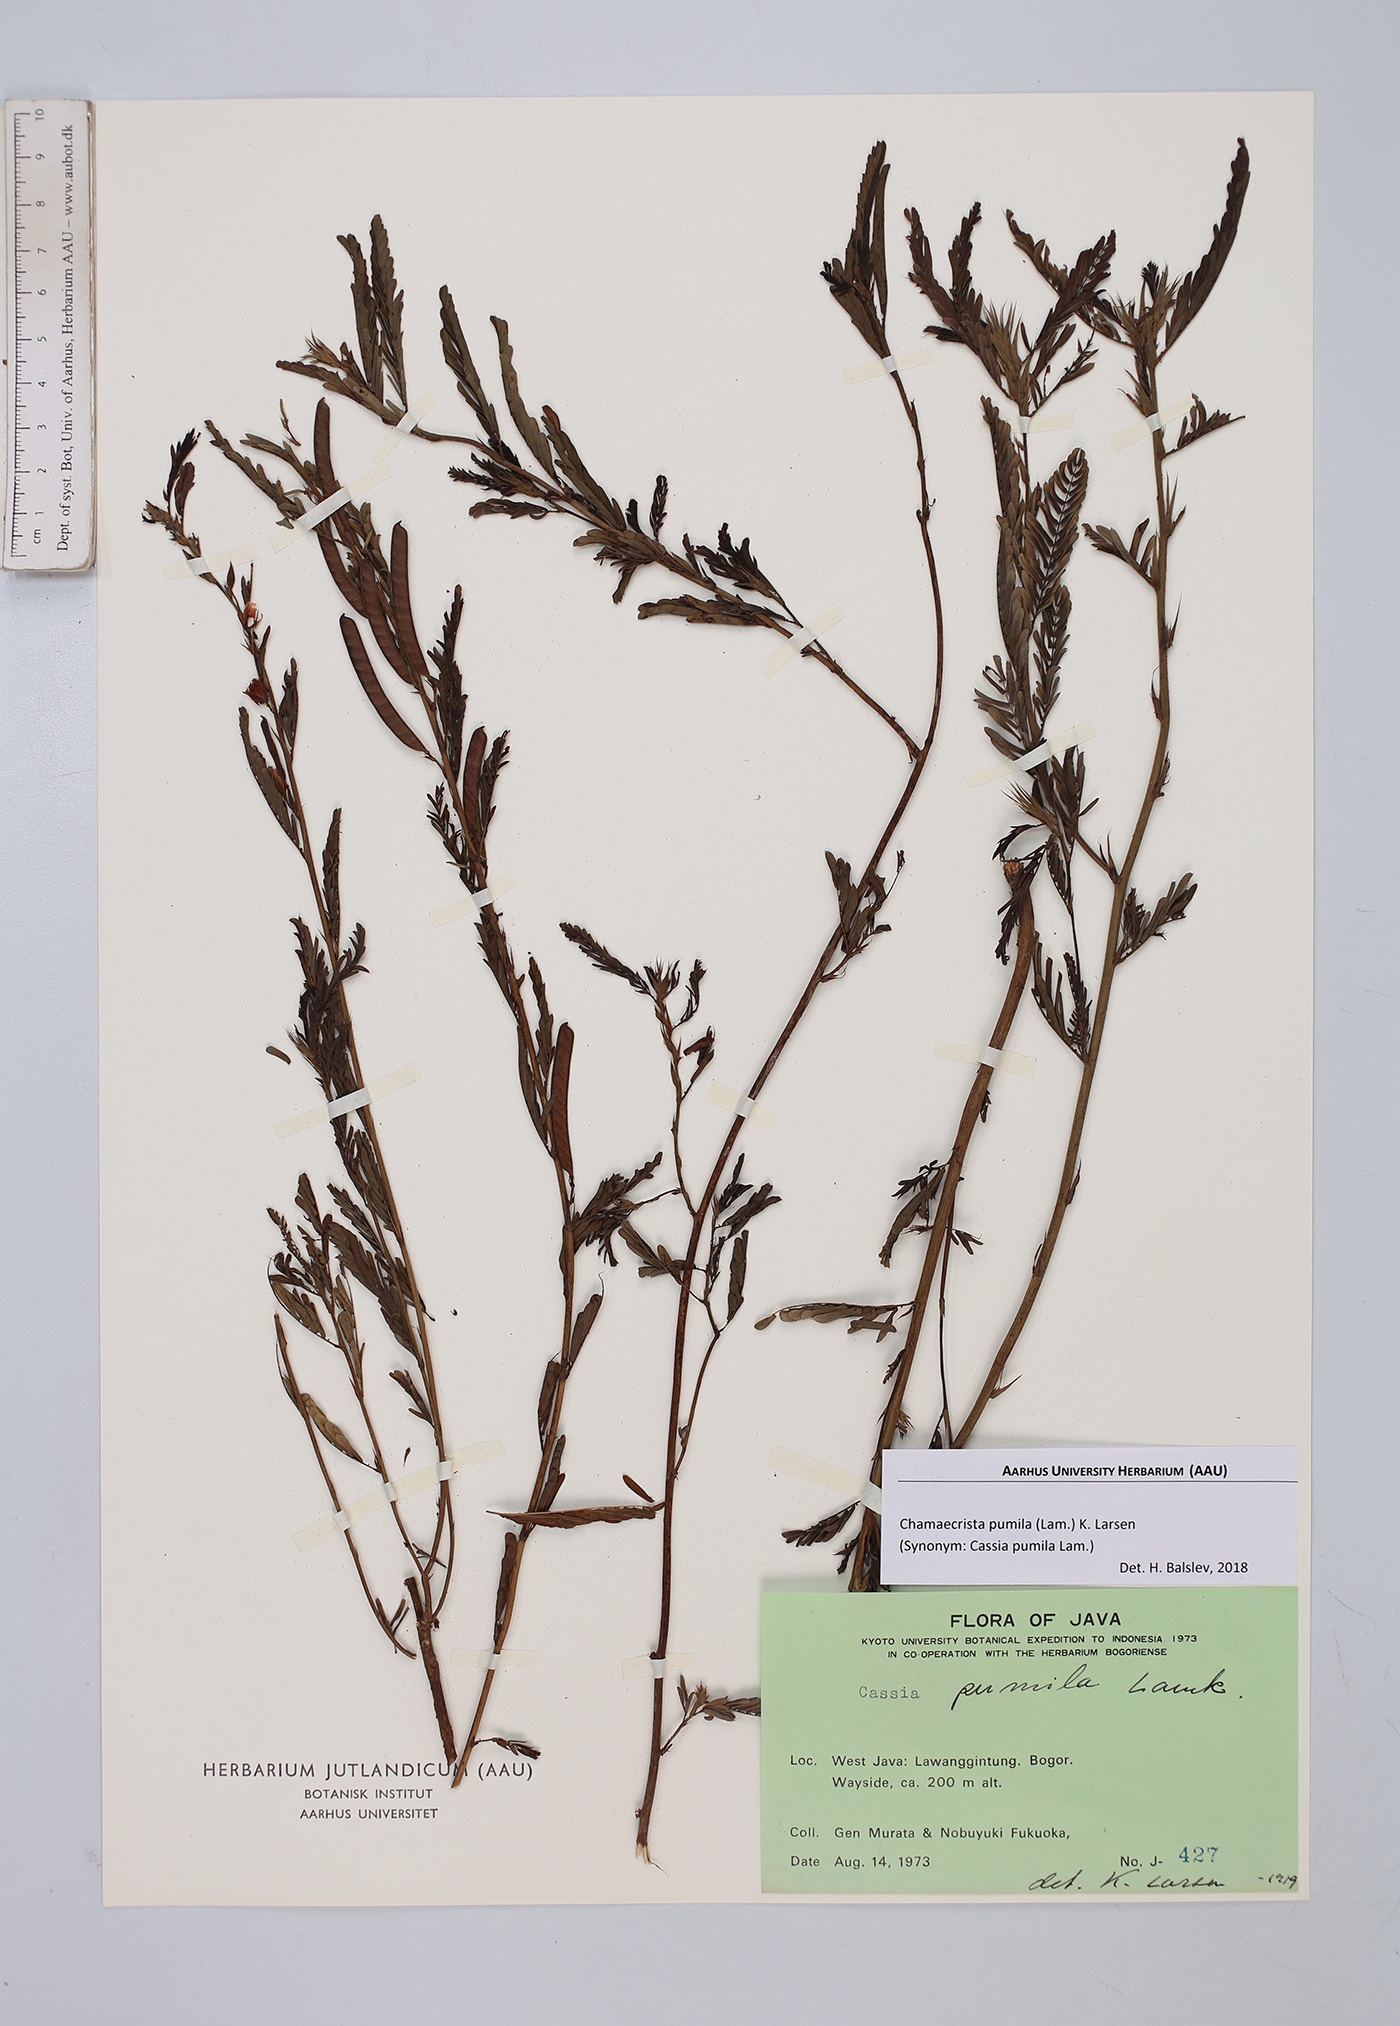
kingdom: Plantae
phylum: Tracheophyta
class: Magnoliopsida
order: Fabales
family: Fabaceae
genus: Chamaecrista
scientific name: Chamaecrista pumila
